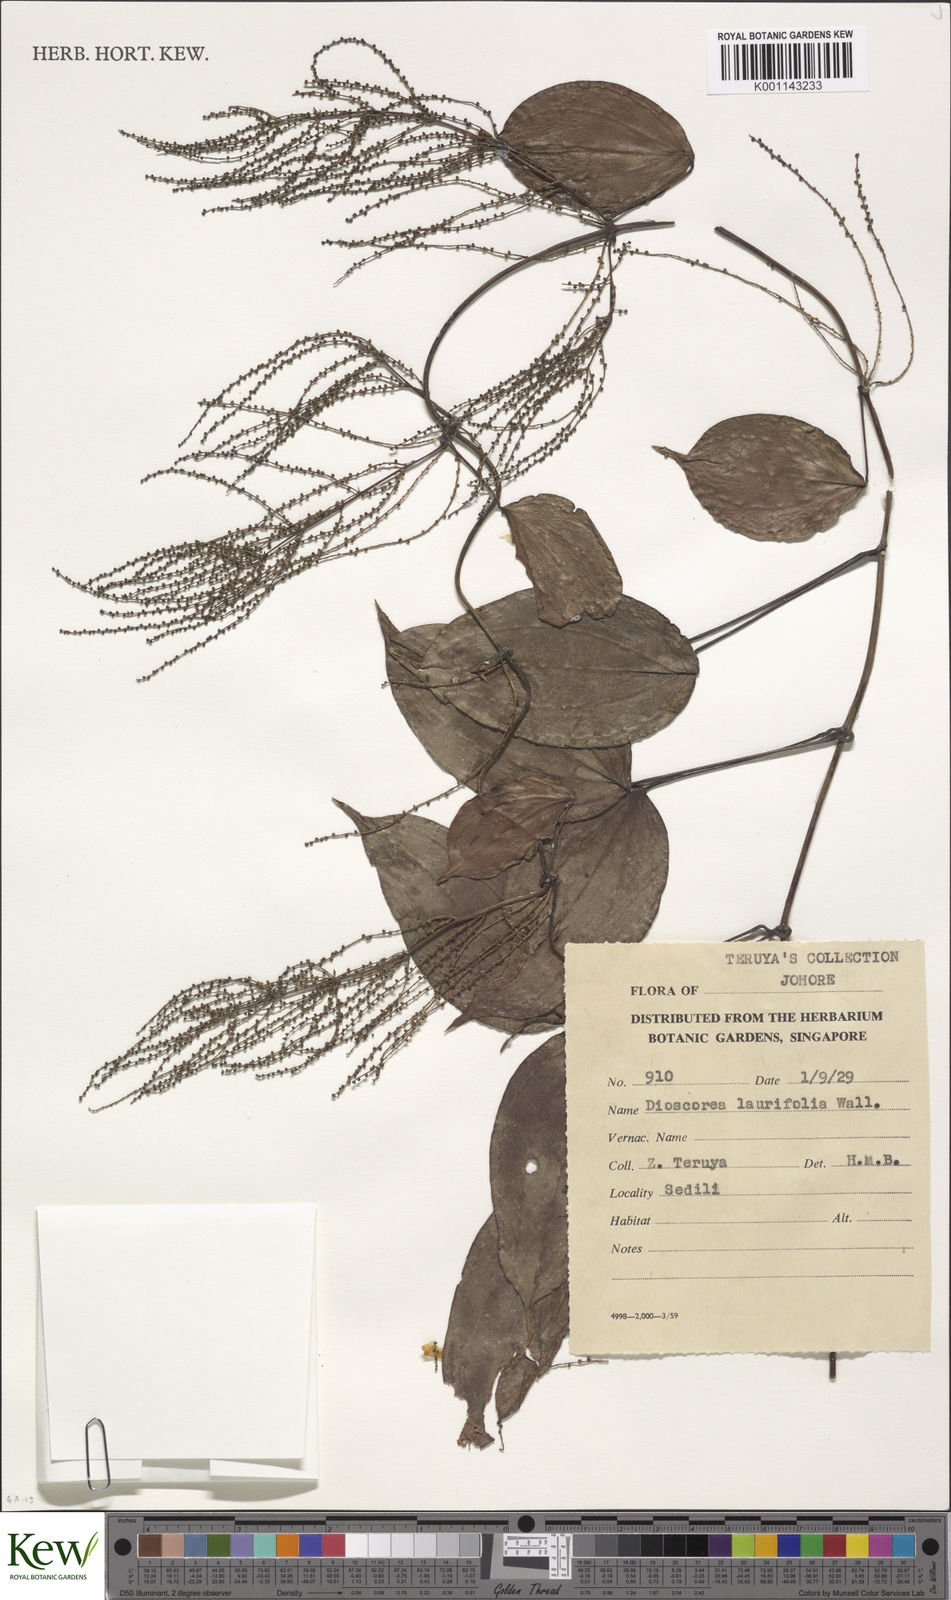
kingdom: Plantae
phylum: Tracheophyta
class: Liliopsida
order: Dioscoreales
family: Dioscoreaceae
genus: Dioscorea
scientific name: Dioscorea laurifolia
